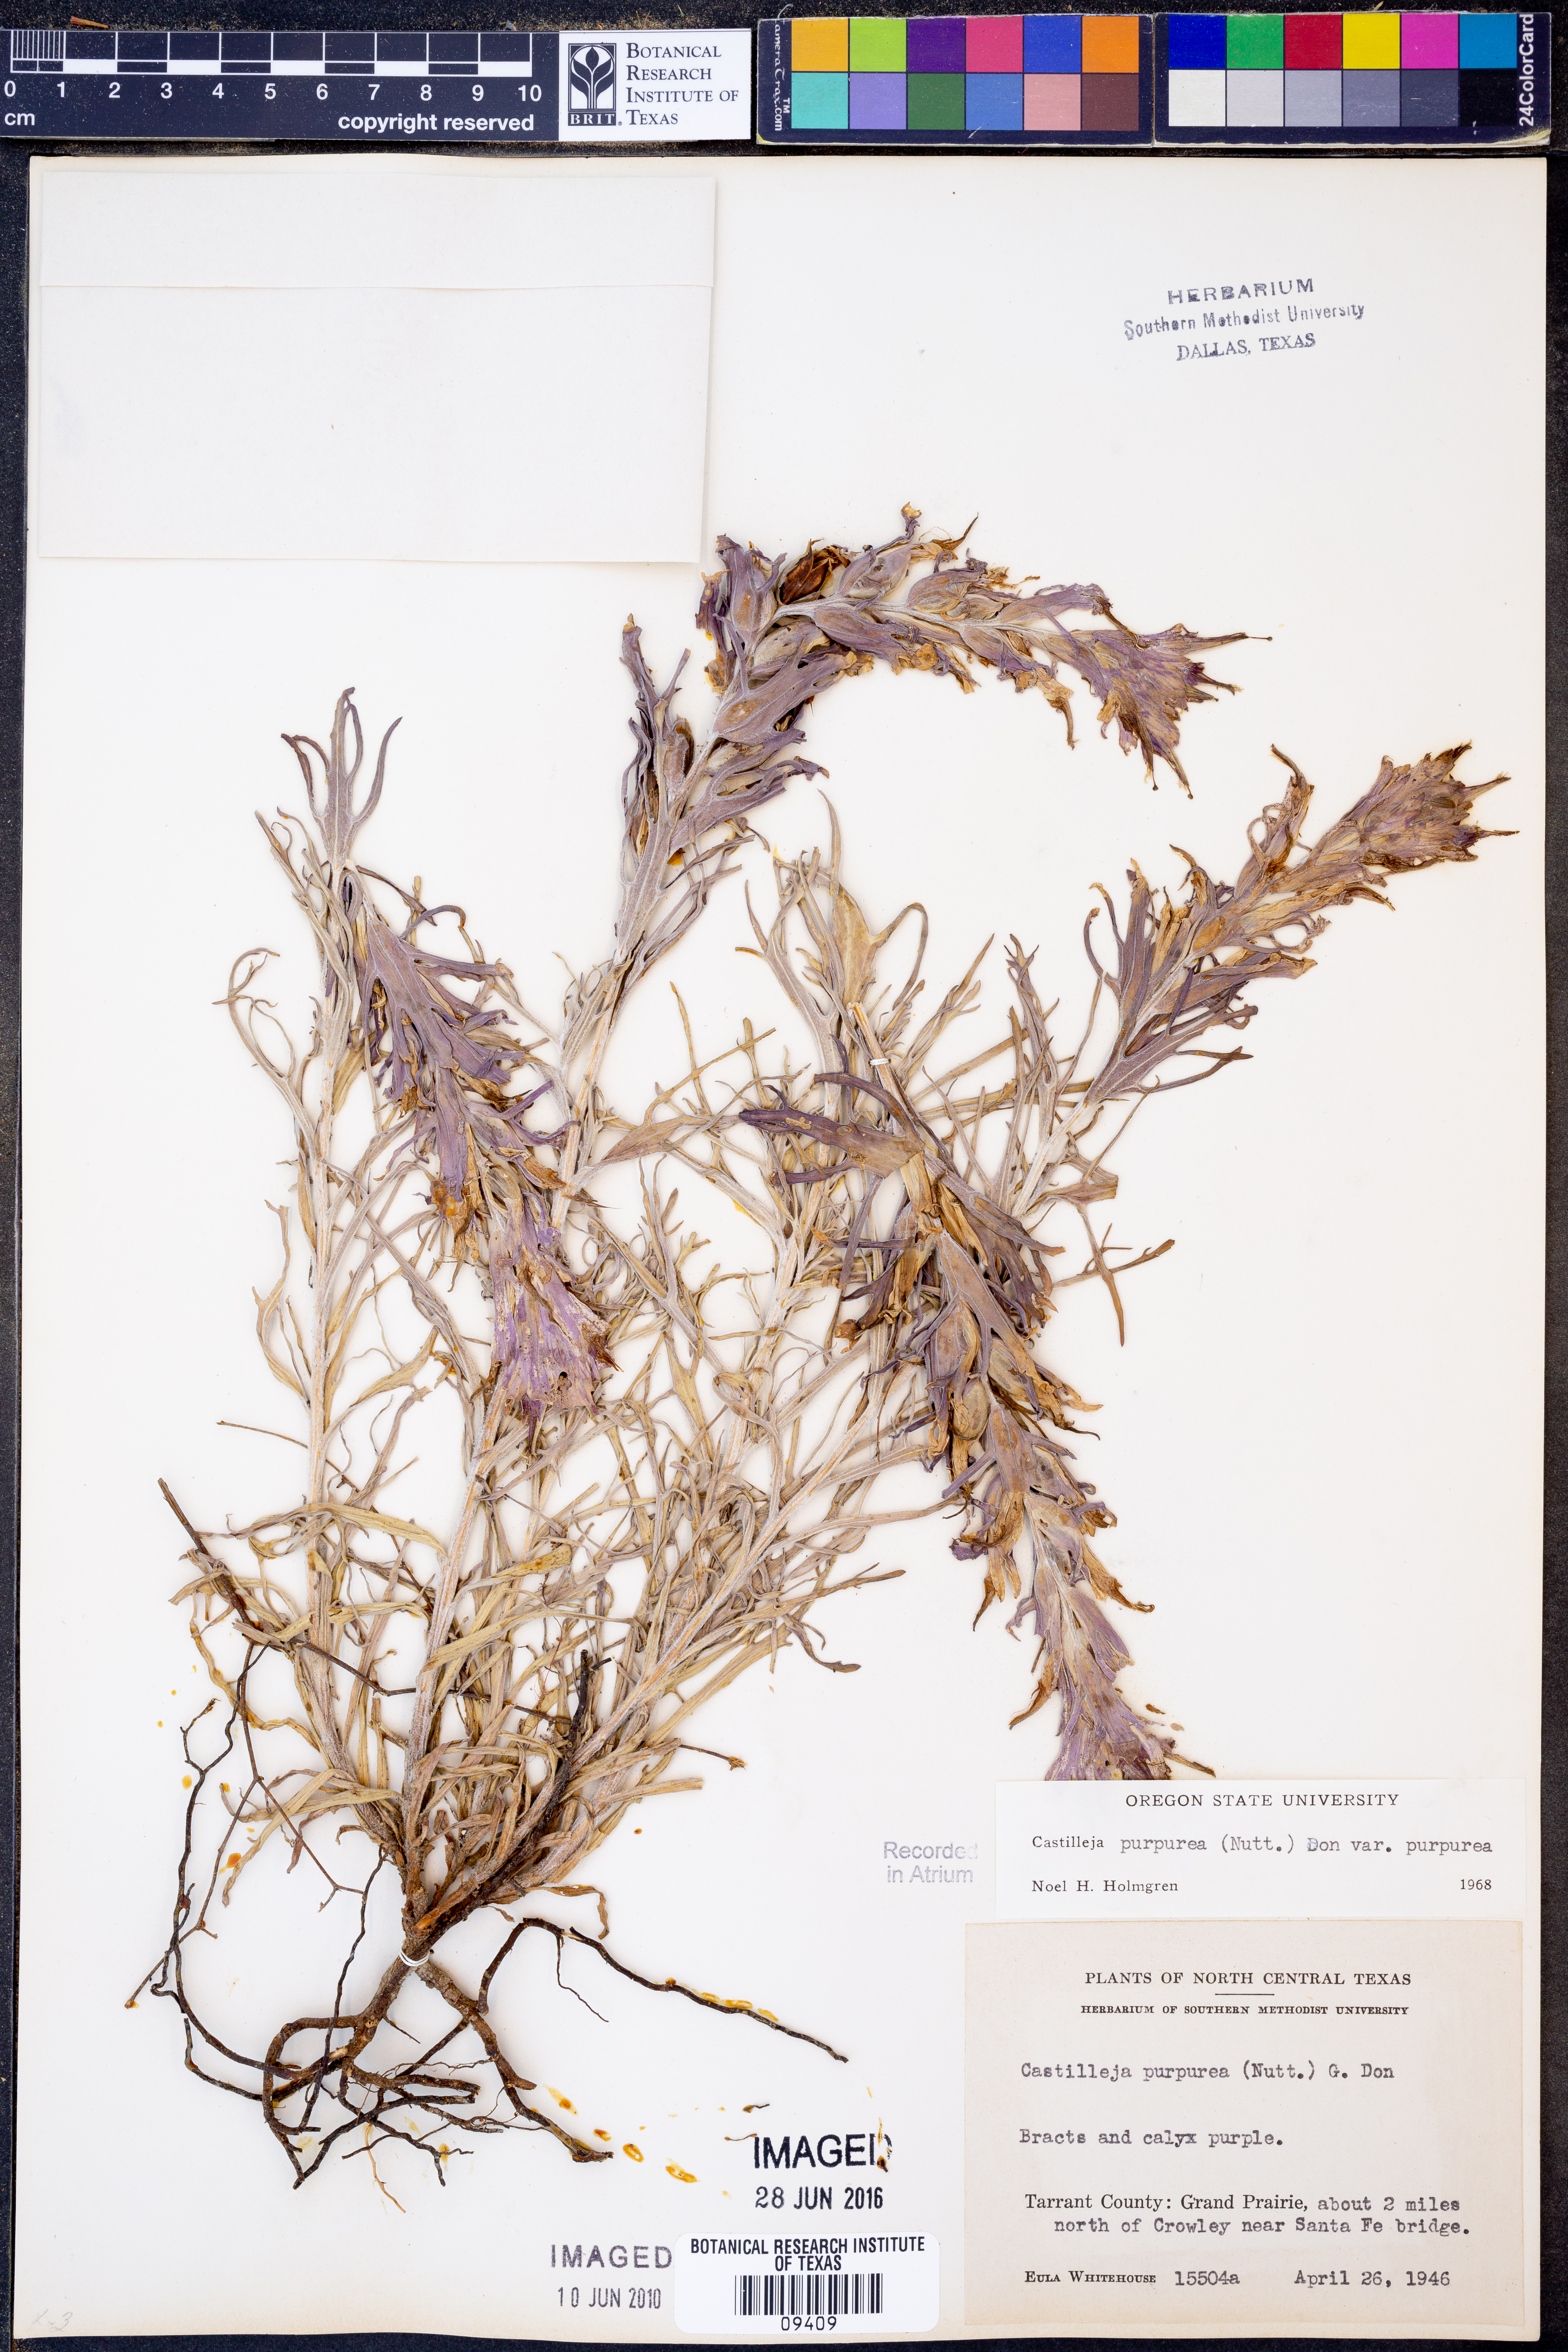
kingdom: Plantae
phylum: Tracheophyta
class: Magnoliopsida
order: Lamiales
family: Orobanchaceae
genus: Castilleja
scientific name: Castilleja purpurea
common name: Plains paintbrush
